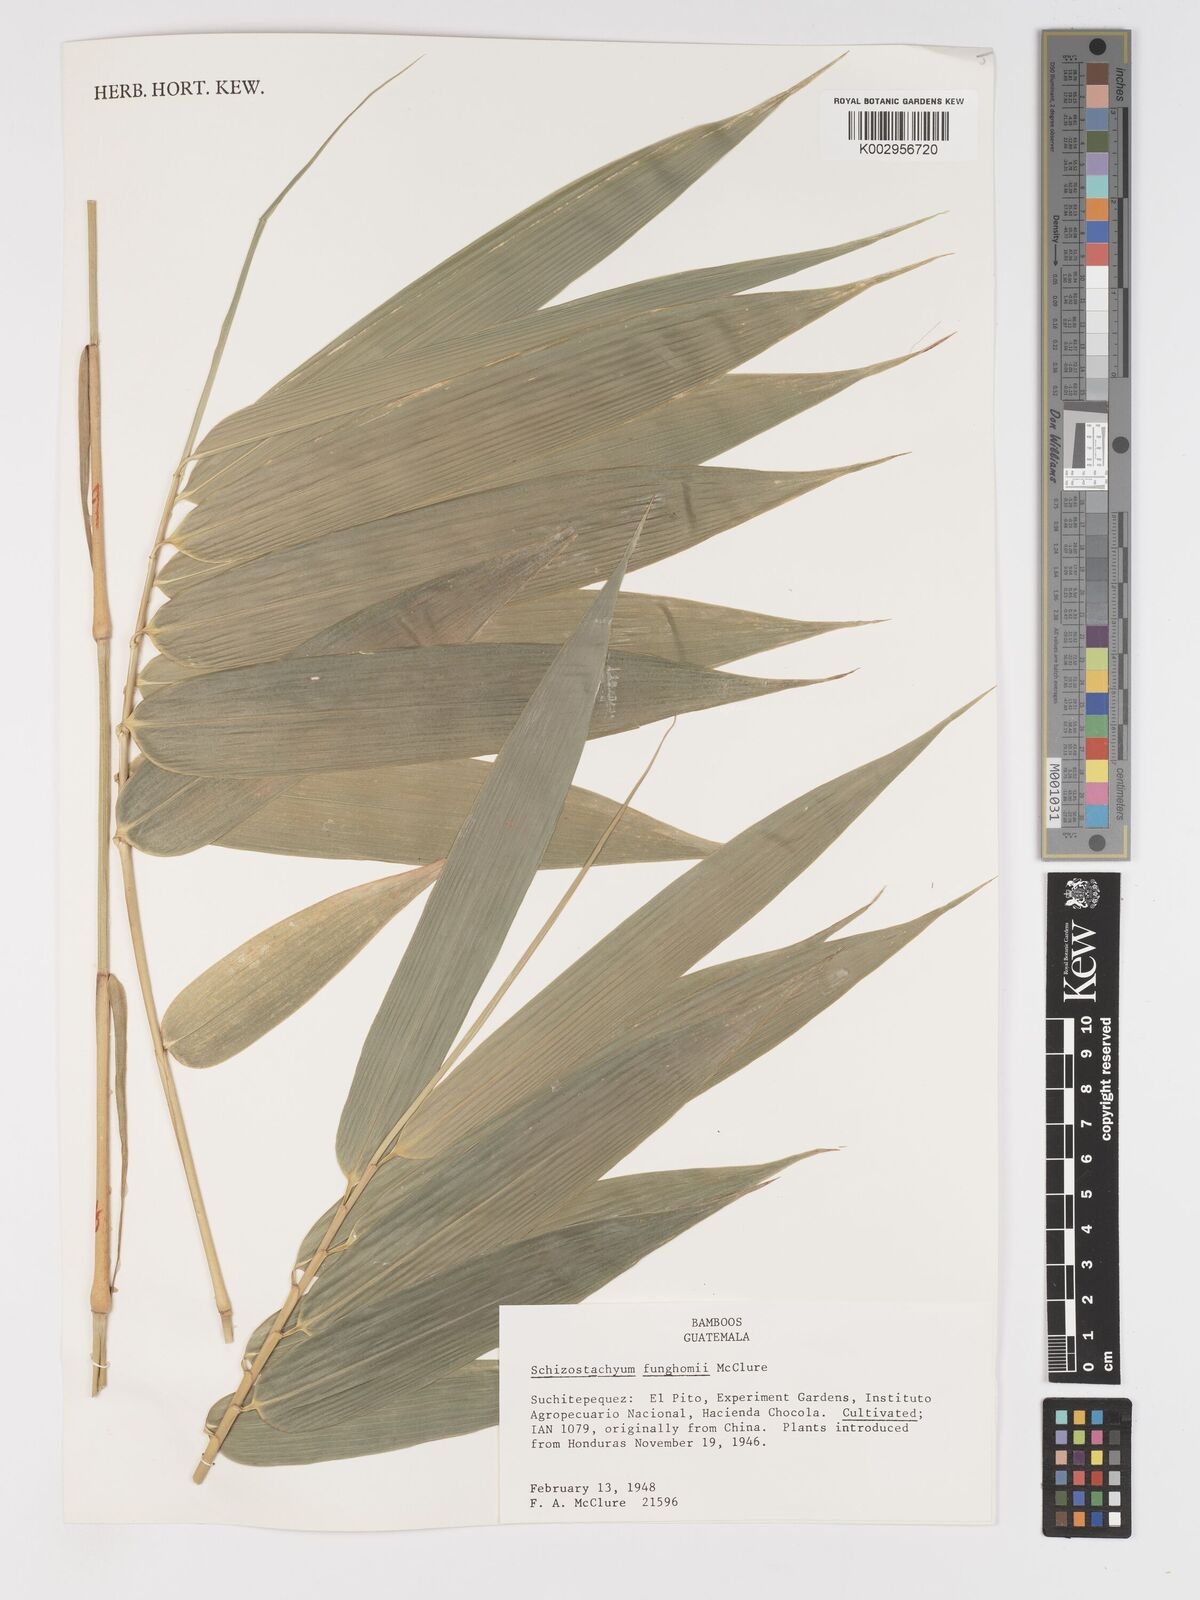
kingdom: Plantae
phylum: Tracheophyta
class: Liliopsida
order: Poales
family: Poaceae
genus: Schizostachyum
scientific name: Schizostachyum funghomii
